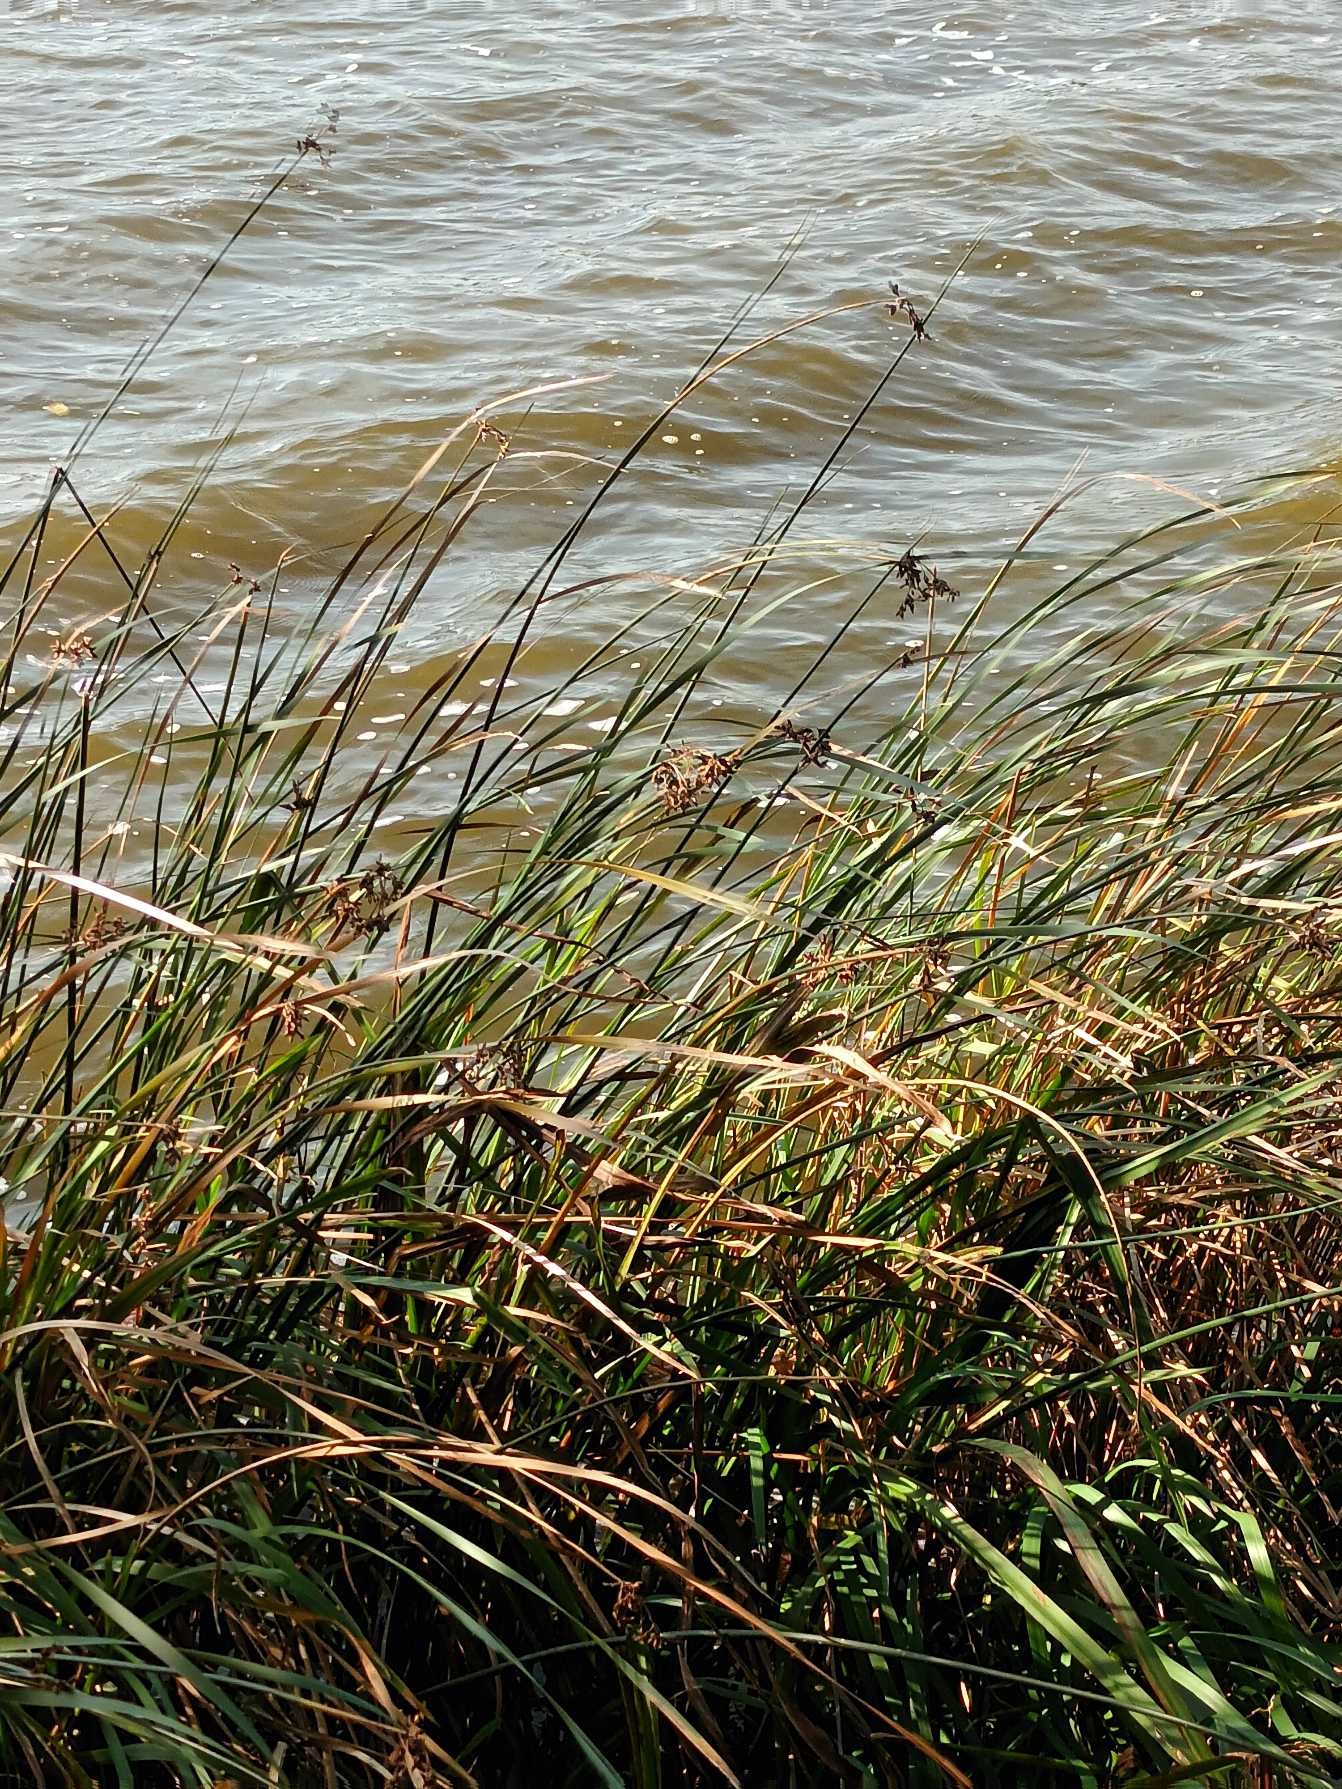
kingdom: Plantae
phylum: Tracheophyta
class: Liliopsida
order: Poales
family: Cyperaceae
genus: Schoenoplectus
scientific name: Schoenoplectus lacustris
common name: Sø-kogleaks
